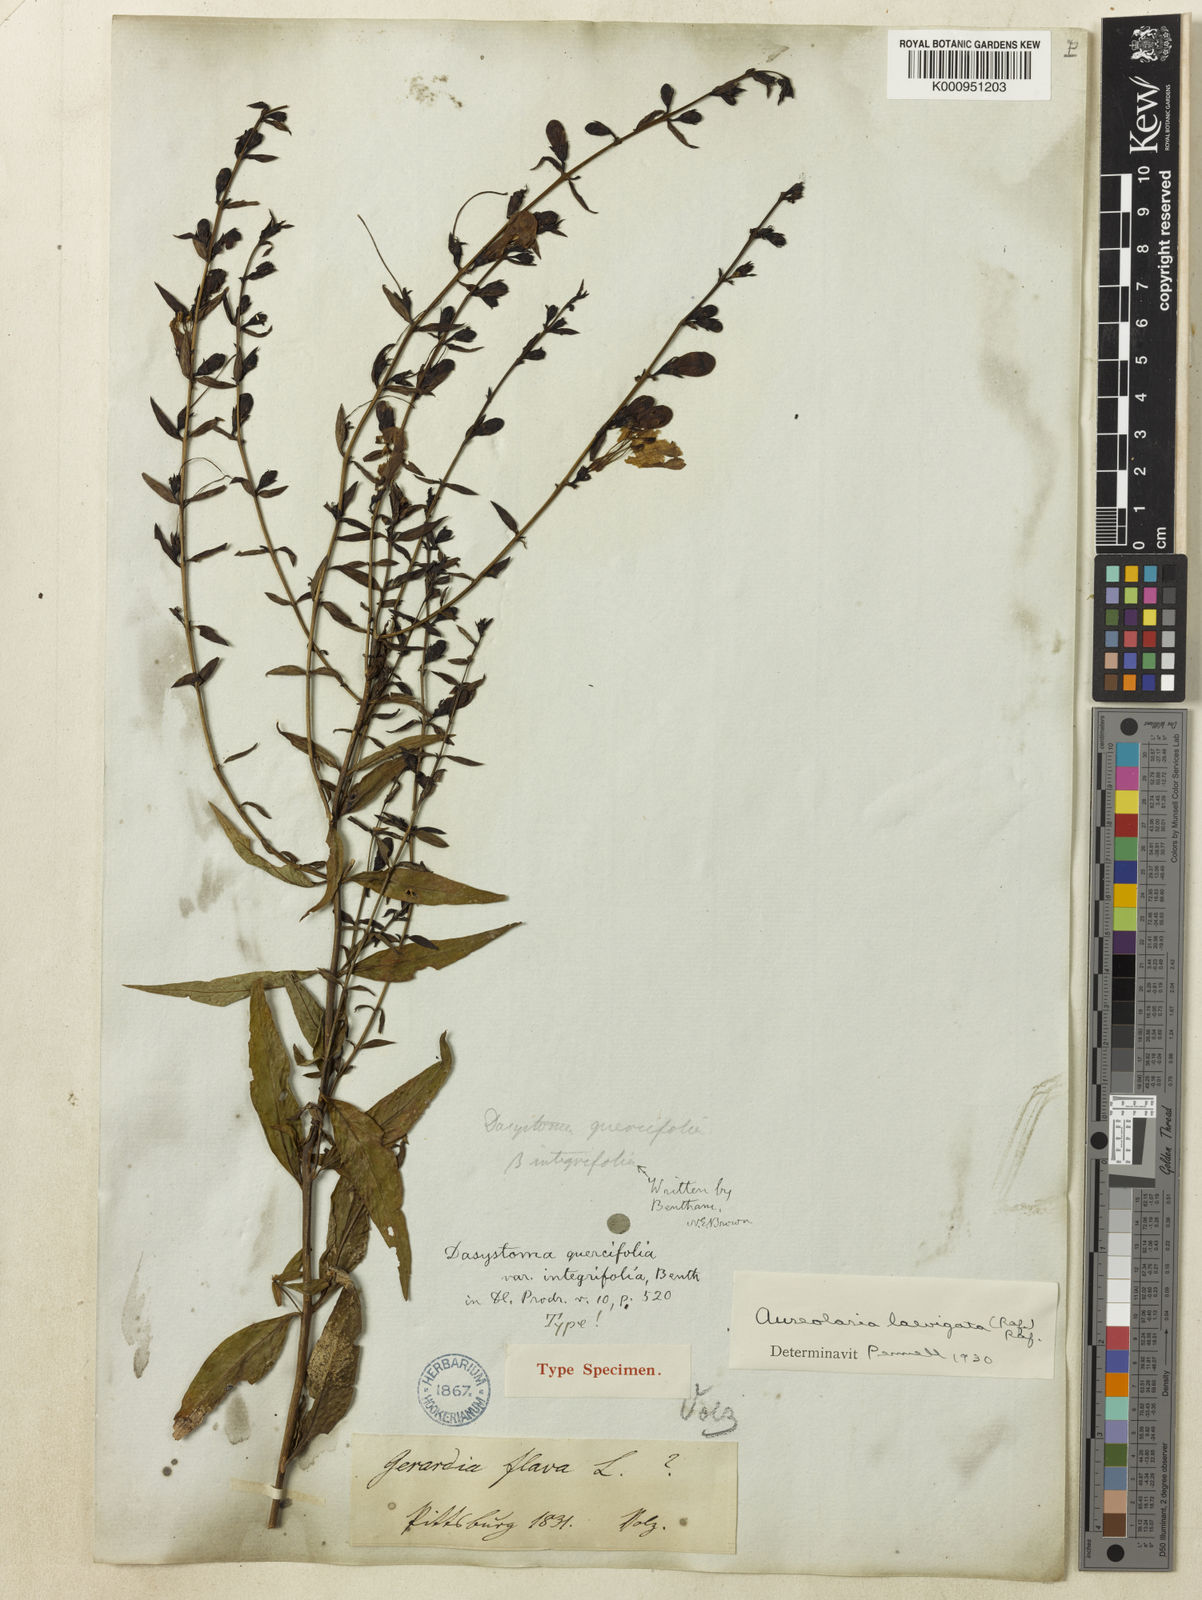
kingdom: Plantae
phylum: Tracheophyta
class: Magnoliopsida
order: Lamiales
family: Orobanchaceae
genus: Aureolaria
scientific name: Aureolaria
